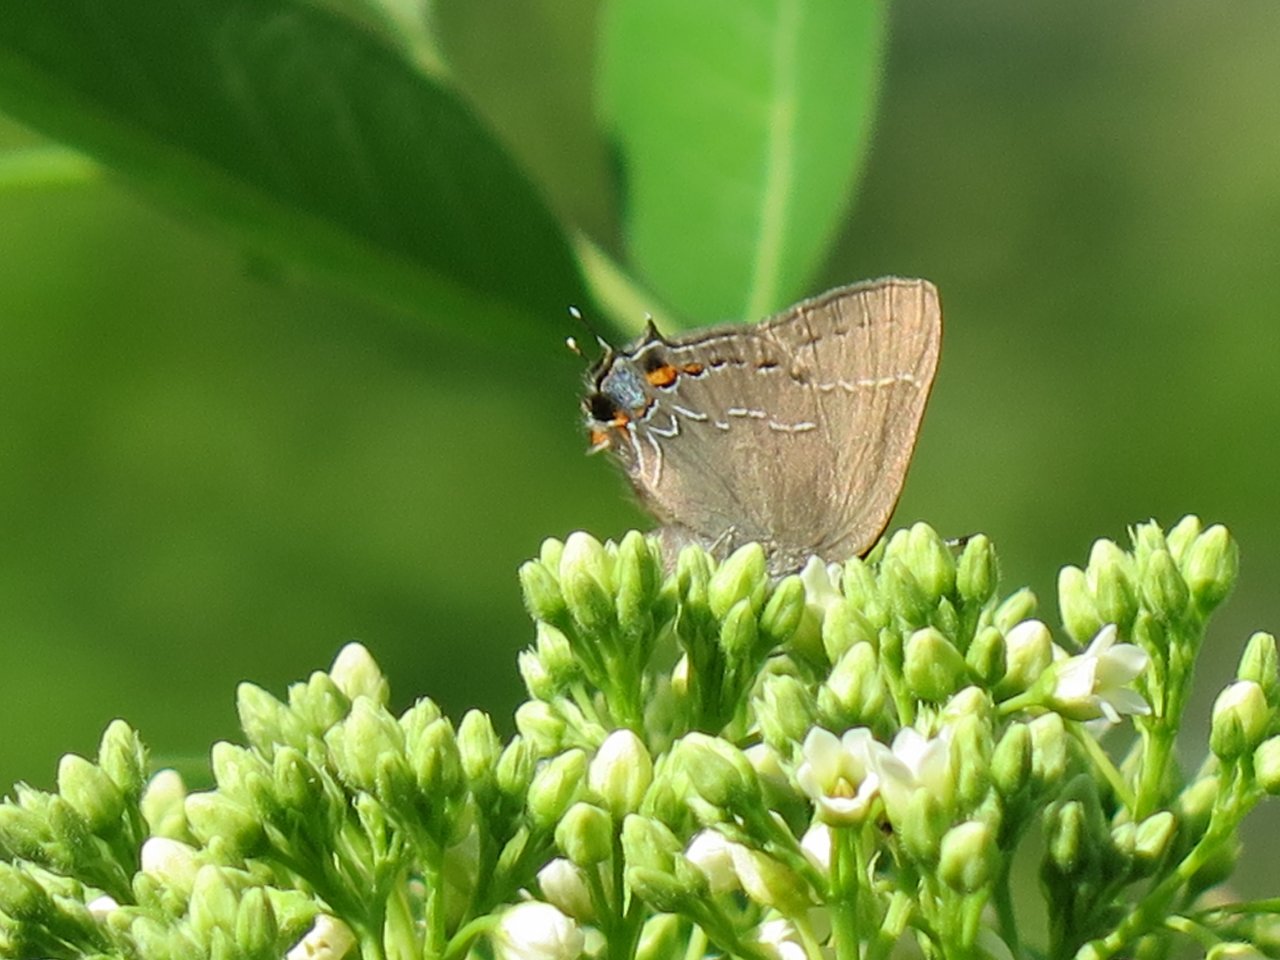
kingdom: Animalia
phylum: Arthropoda
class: Insecta
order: Lepidoptera
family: Lycaenidae
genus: Fixsenia
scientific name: Fixsenia favonius
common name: Oak Hairstreak
